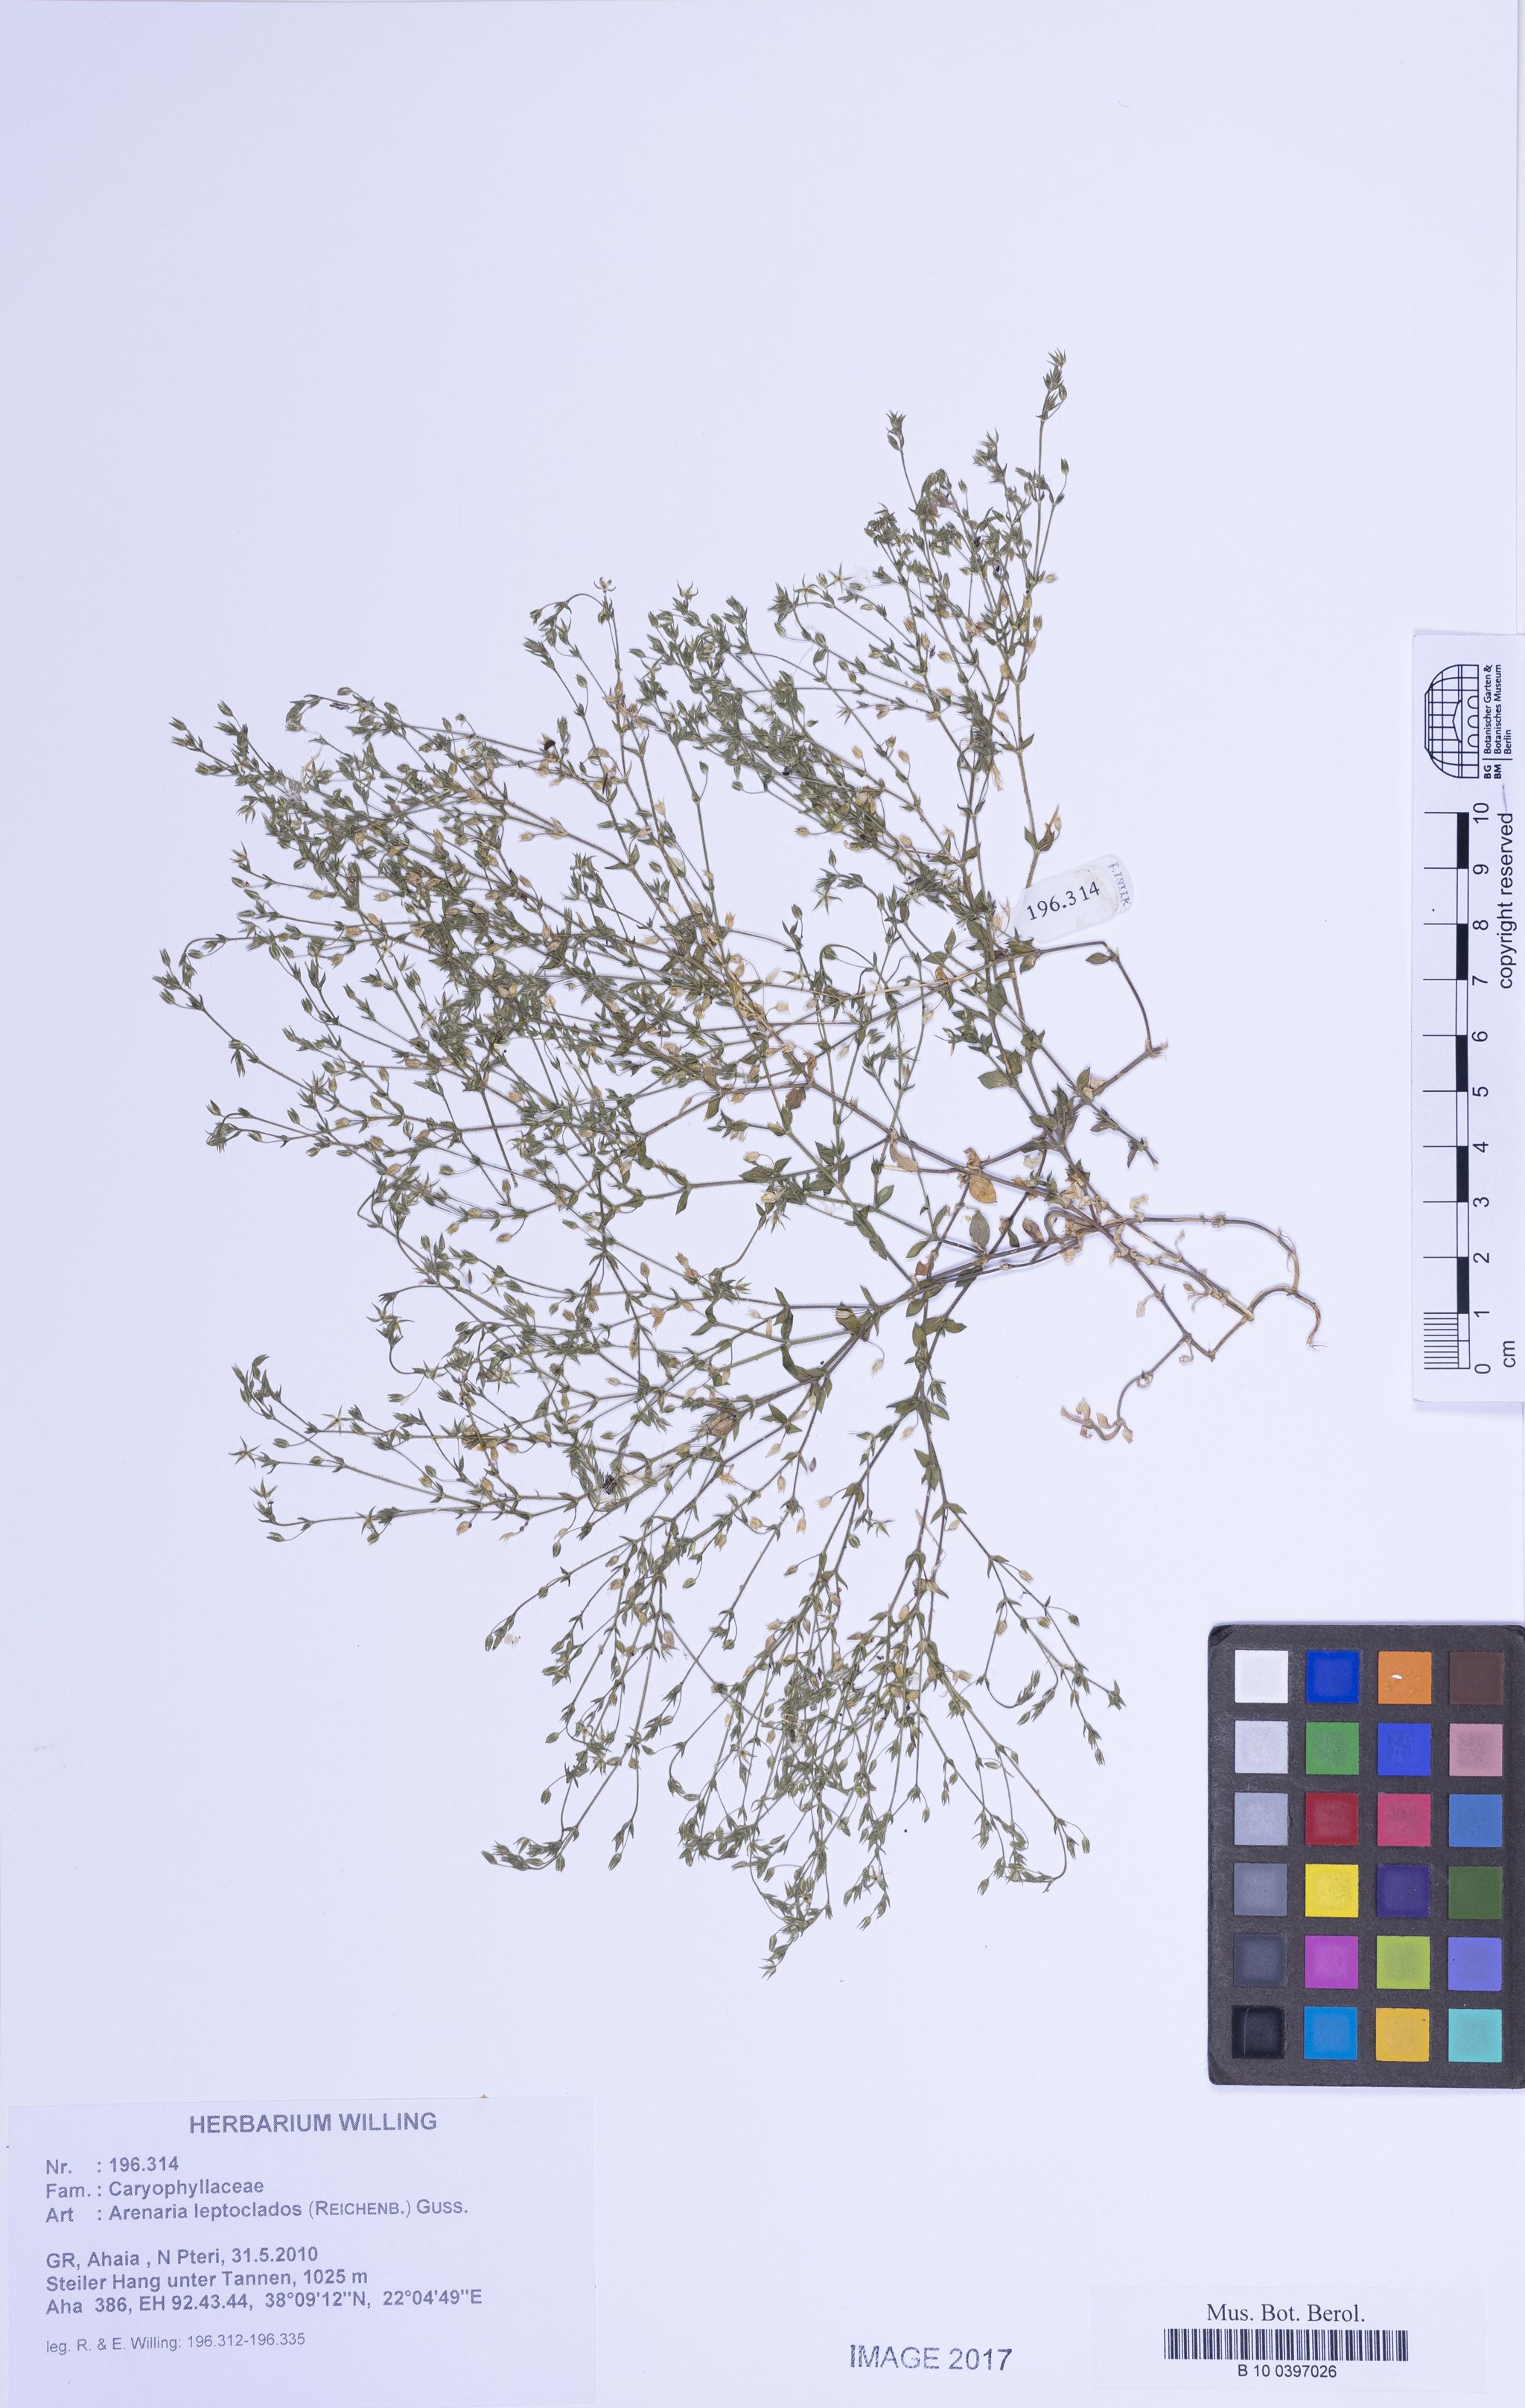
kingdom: Plantae
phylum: Tracheophyta
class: Magnoliopsida
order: Caryophyllales
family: Caryophyllaceae
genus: Arenaria
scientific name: Arenaria leptoclados
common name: Thyme-leaved sandwort
